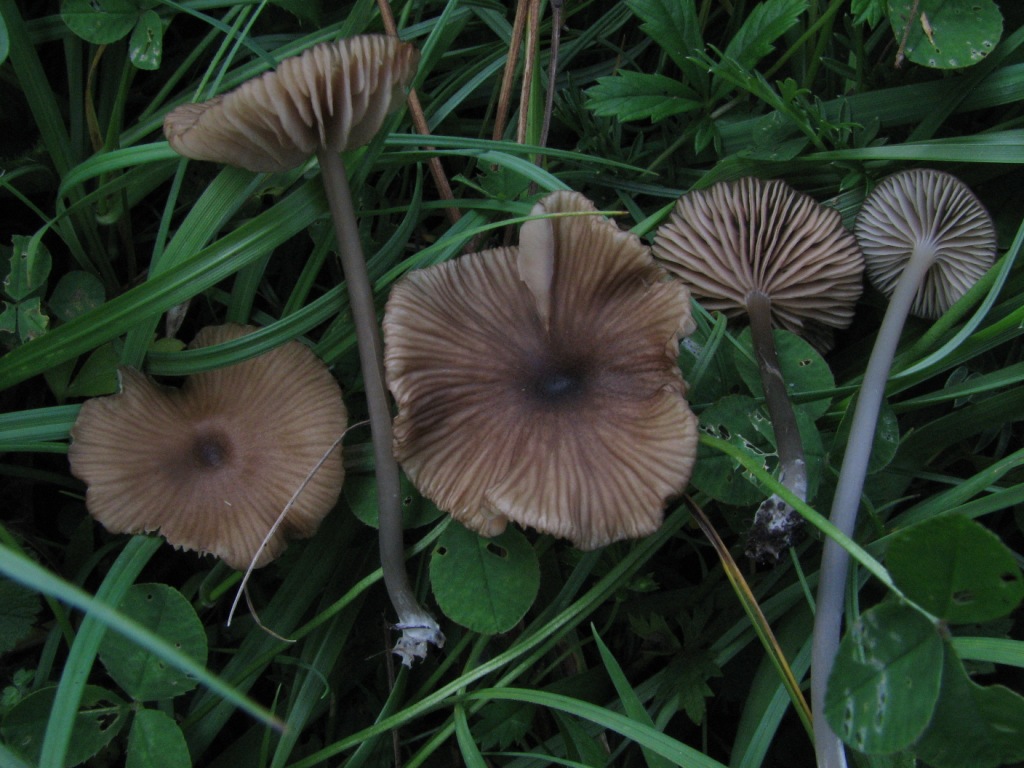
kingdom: Fungi
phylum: Basidiomycota
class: Agaricomycetes
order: Agaricales
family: Entolomataceae
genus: Entoloma
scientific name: Entoloma longistriatum
